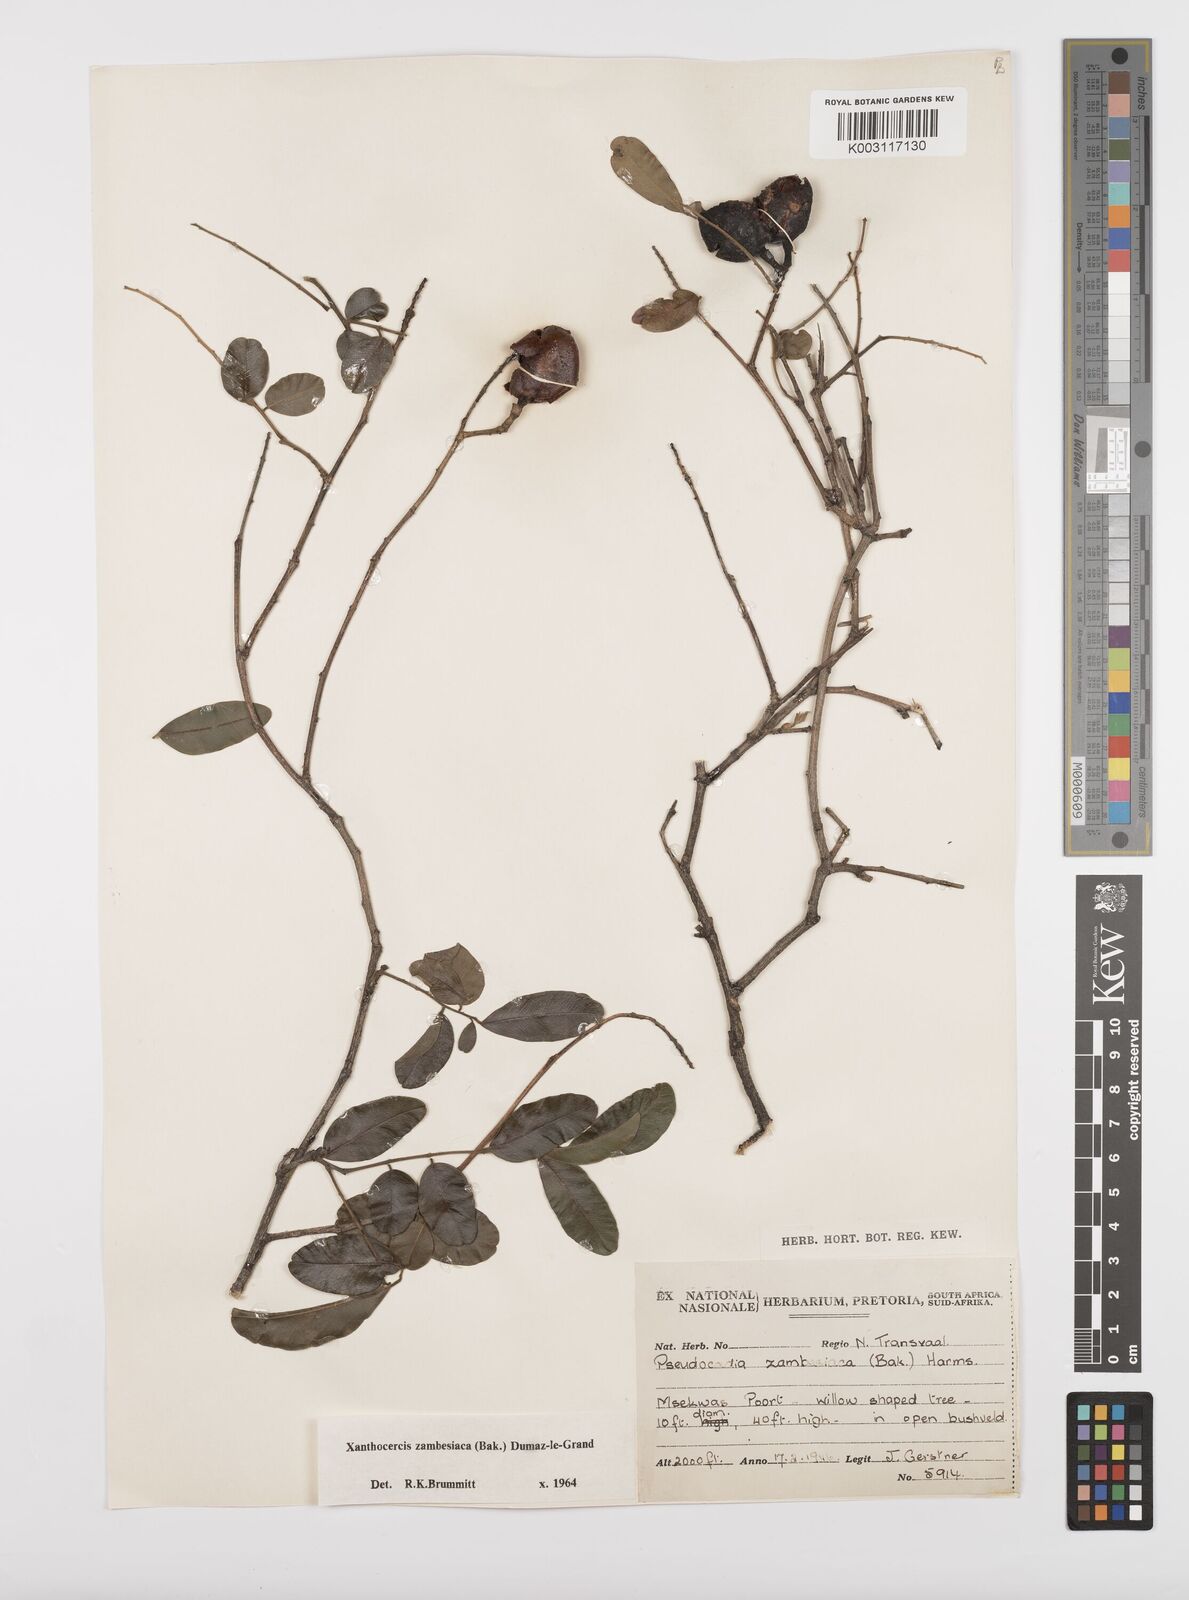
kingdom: Plantae
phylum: Tracheophyta
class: Magnoliopsida
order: Fabales
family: Fabaceae
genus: Xanthocercis
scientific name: Xanthocercis zambesiaca
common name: Nyala-tree
